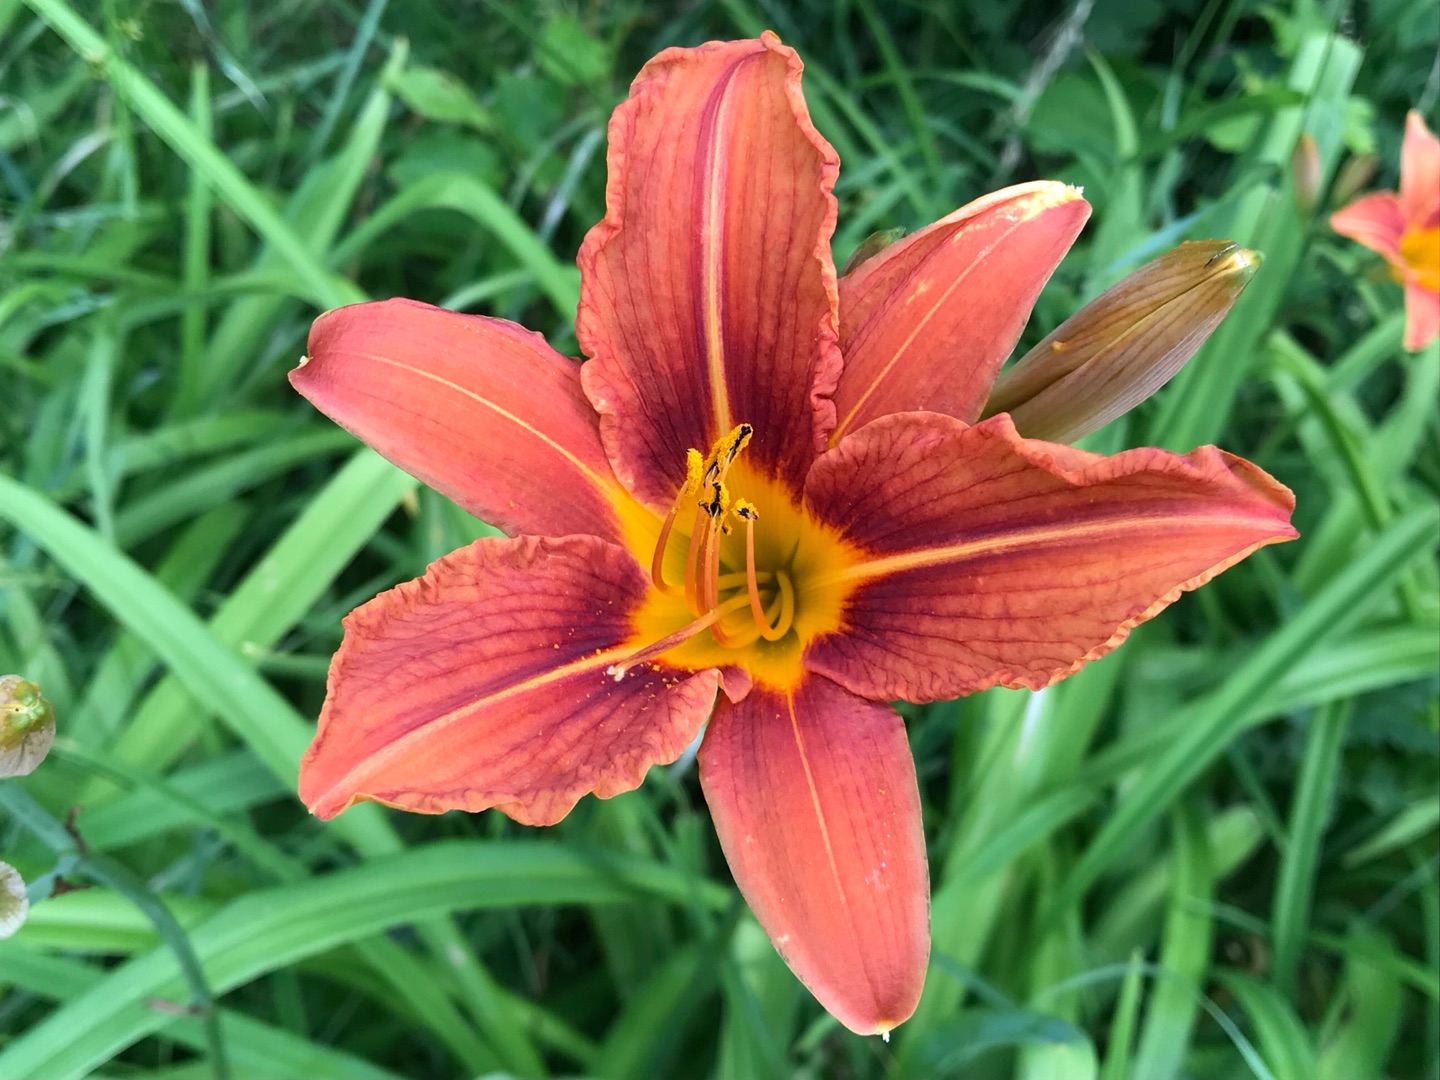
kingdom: Plantae
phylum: Tracheophyta
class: Liliopsida
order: Asparagales
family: Asphodelaceae
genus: Hemerocallis
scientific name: Hemerocallis fulva
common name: Rødgul daglilje
